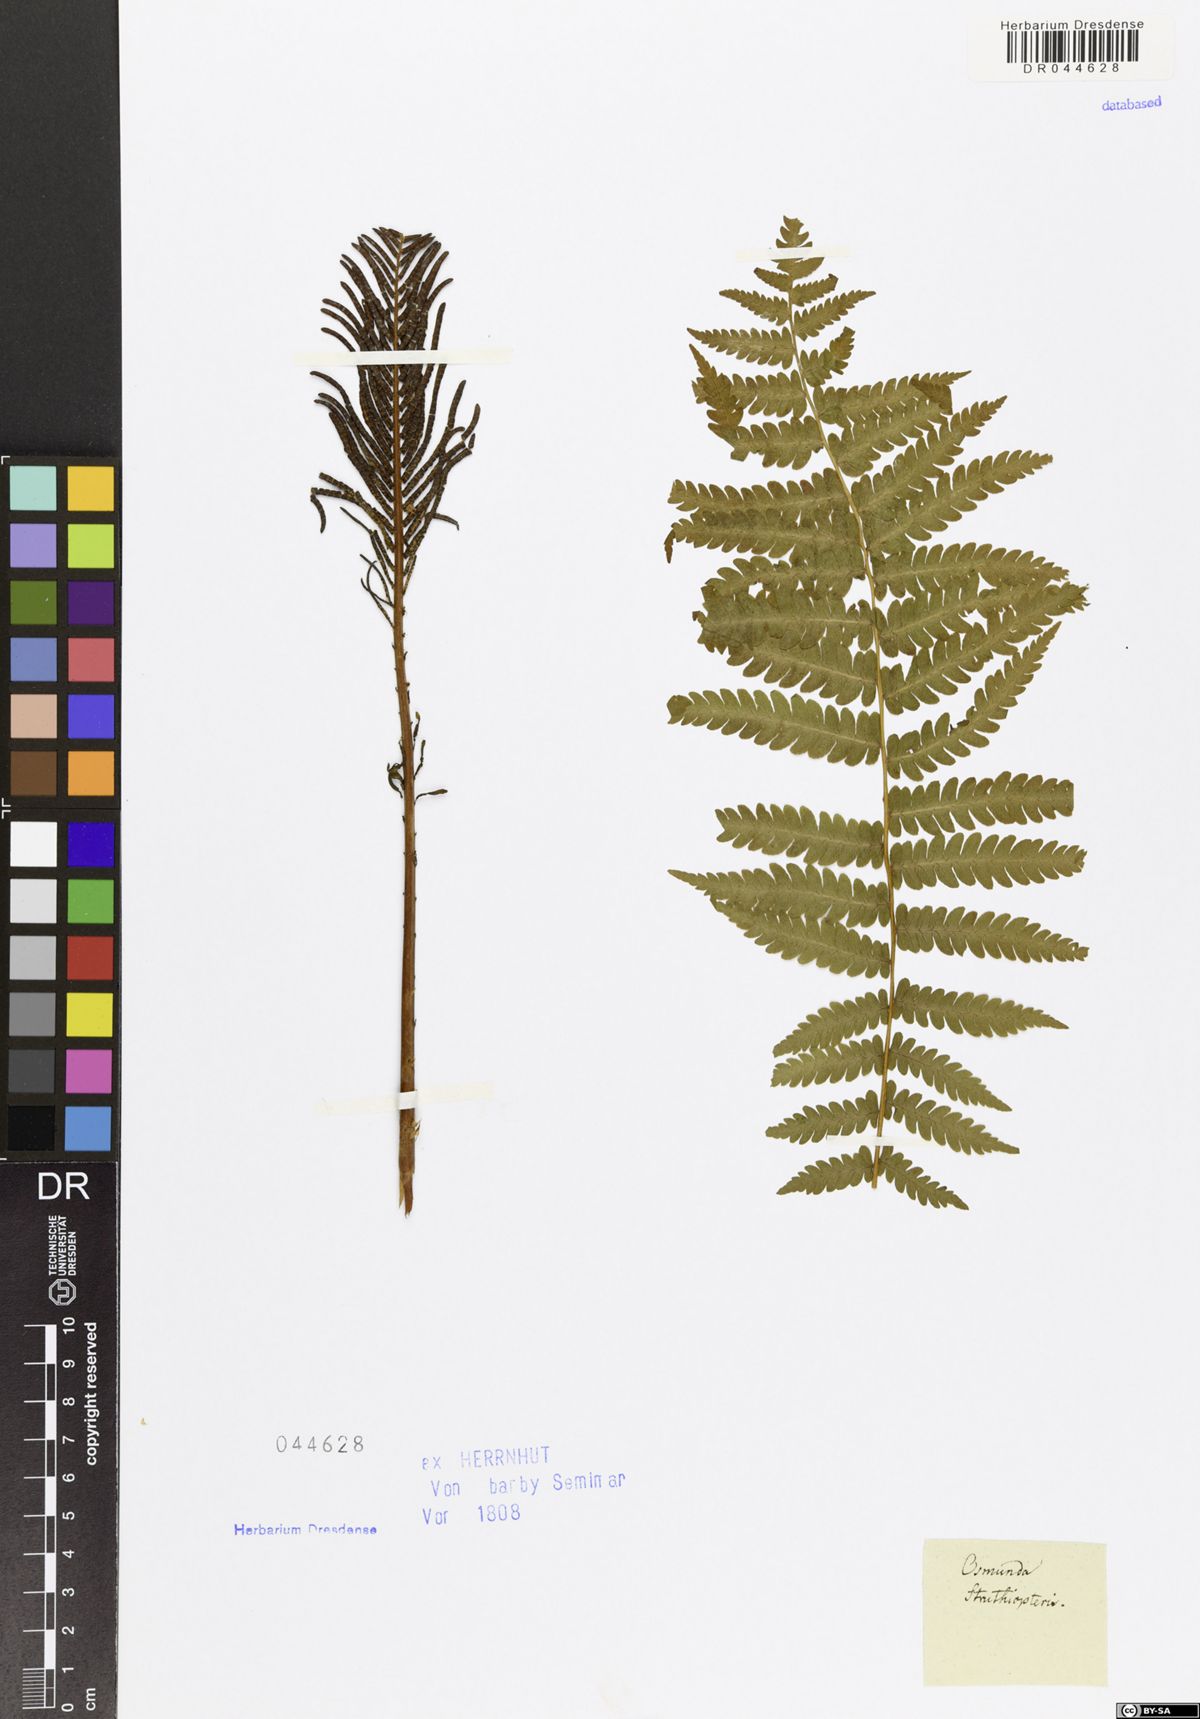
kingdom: Plantae
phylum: Tracheophyta
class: Polypodiopsida
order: Polypodiales
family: Onocleaceae
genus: Matteuccia
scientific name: Matteuccia struthiopteris
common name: Ostrich fern
